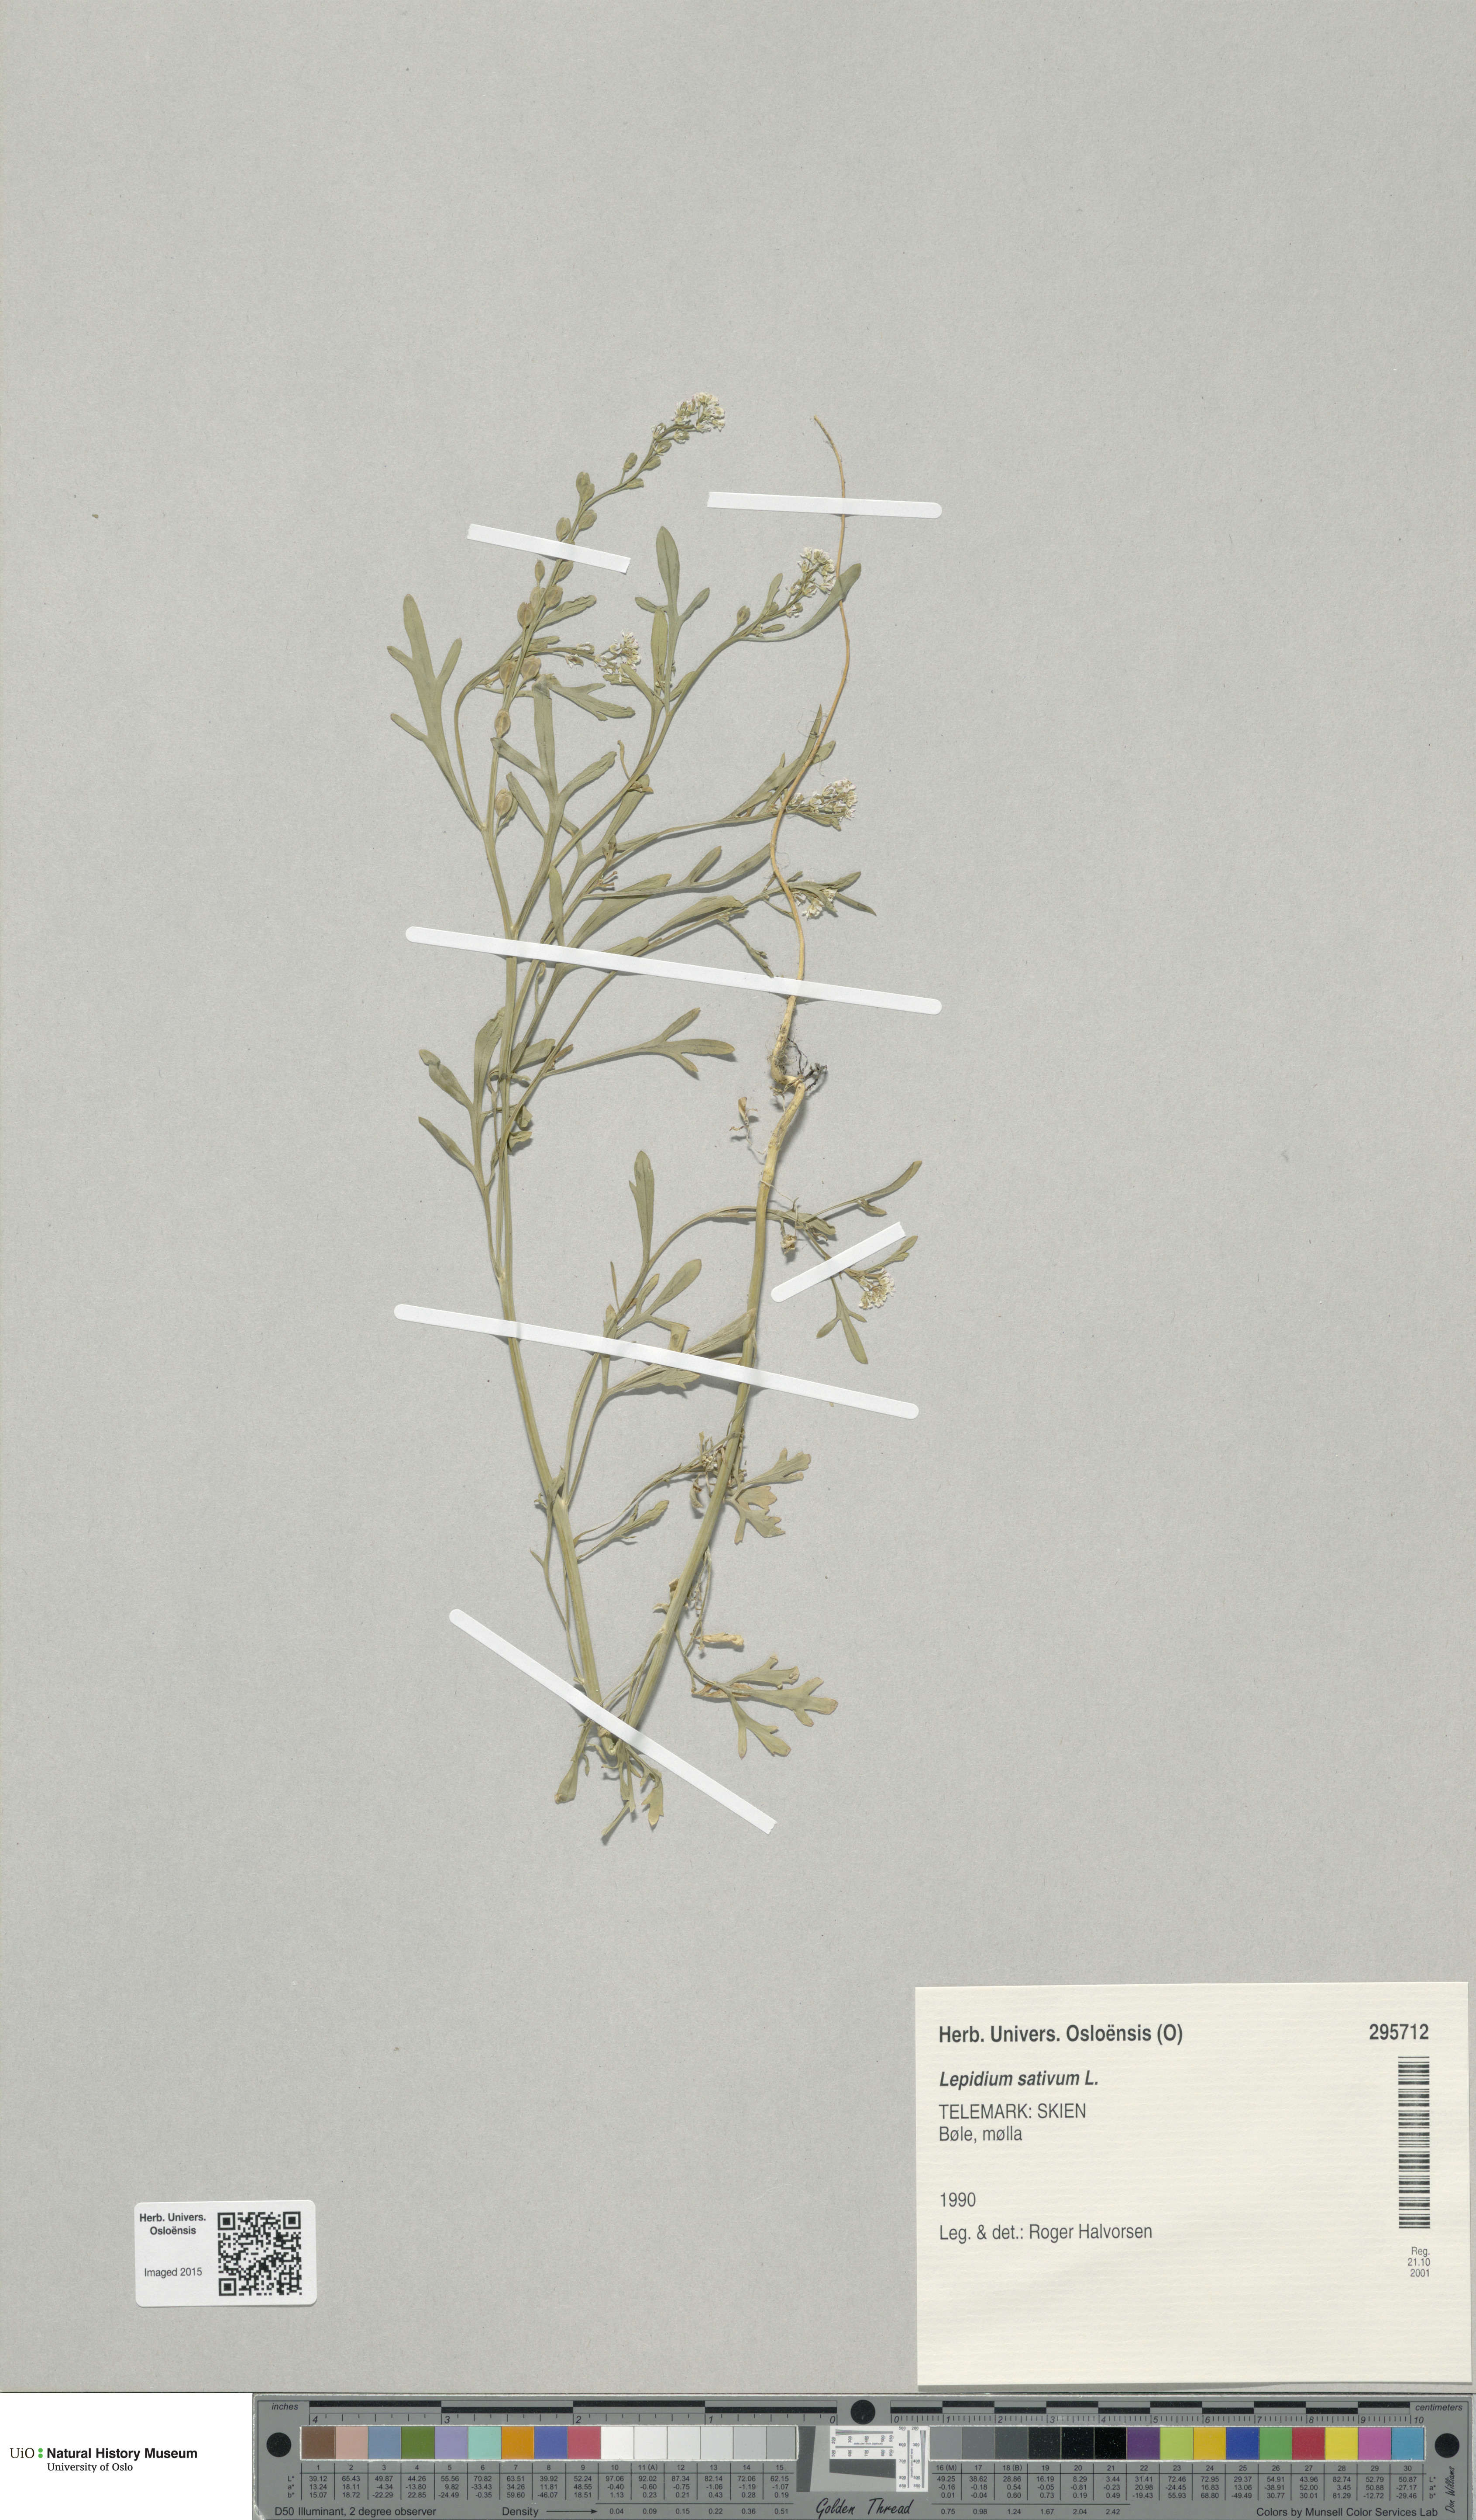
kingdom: Plantae
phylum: Tracheophyta
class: Magnoliopsida
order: Brassicales
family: Brassicaceae
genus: Lepidium
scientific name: Lepidium sativum
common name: Garden cress
